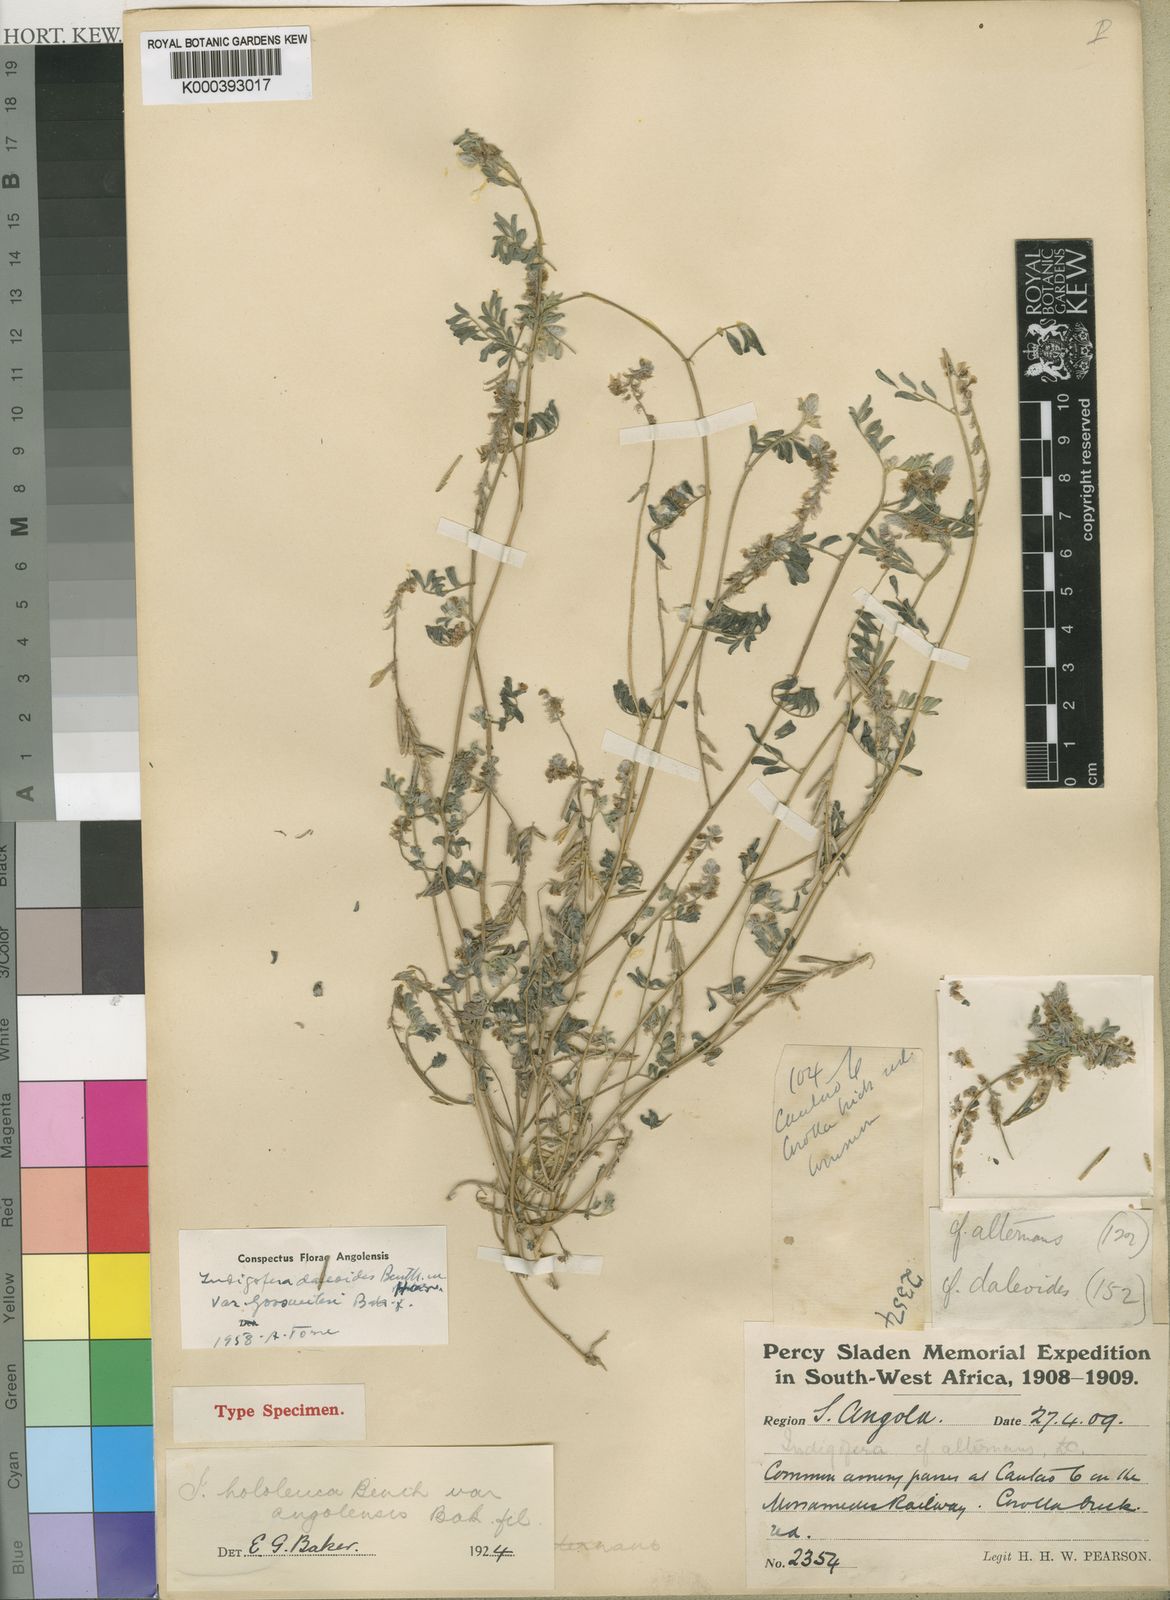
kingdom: Plantae
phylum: Tracheophyta
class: Magnoliopsida
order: Fabales
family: Fabaceae
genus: Indigofera
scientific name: Indigofera daleoides
